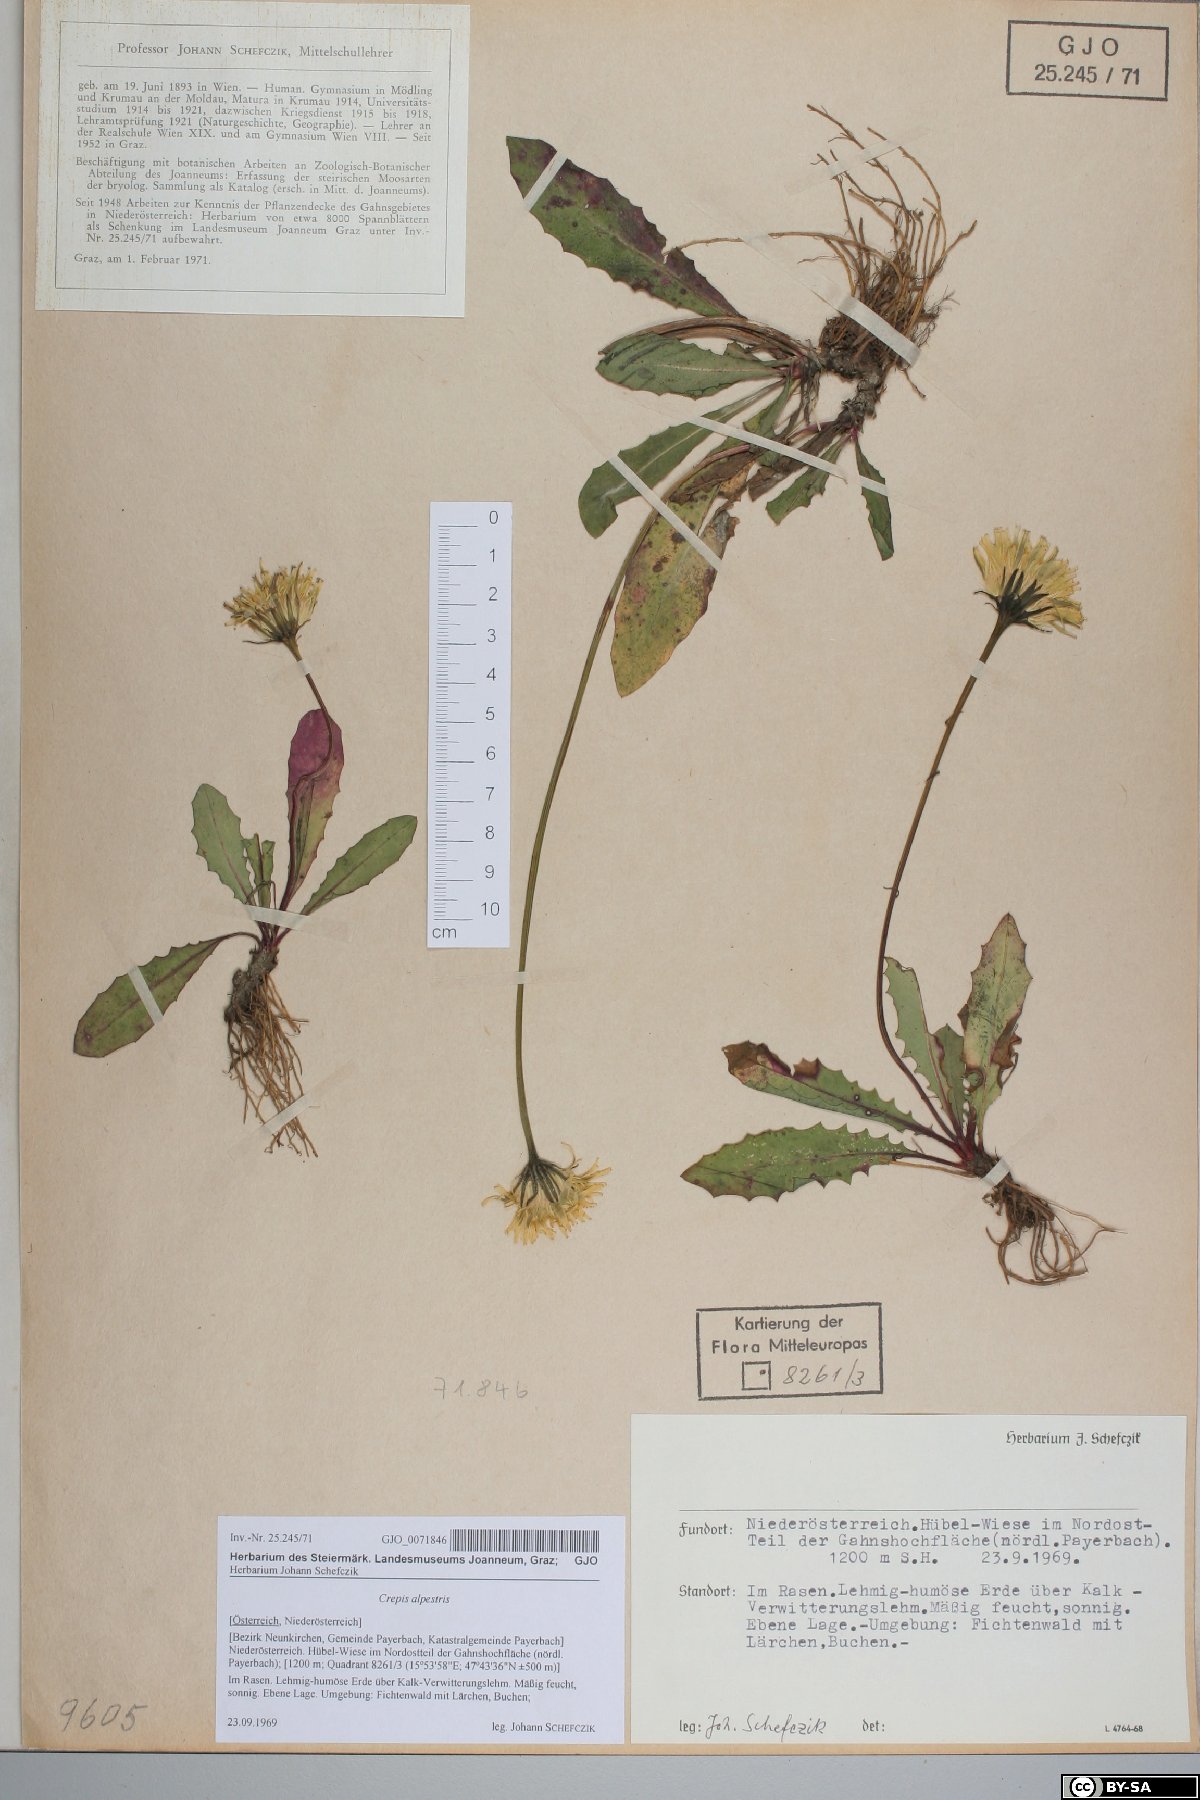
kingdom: Plantae
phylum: Tracheophyta
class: Magnoliopsida
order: Asterales
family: Asteraceae
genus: Crepis
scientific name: Crepis alpestris
